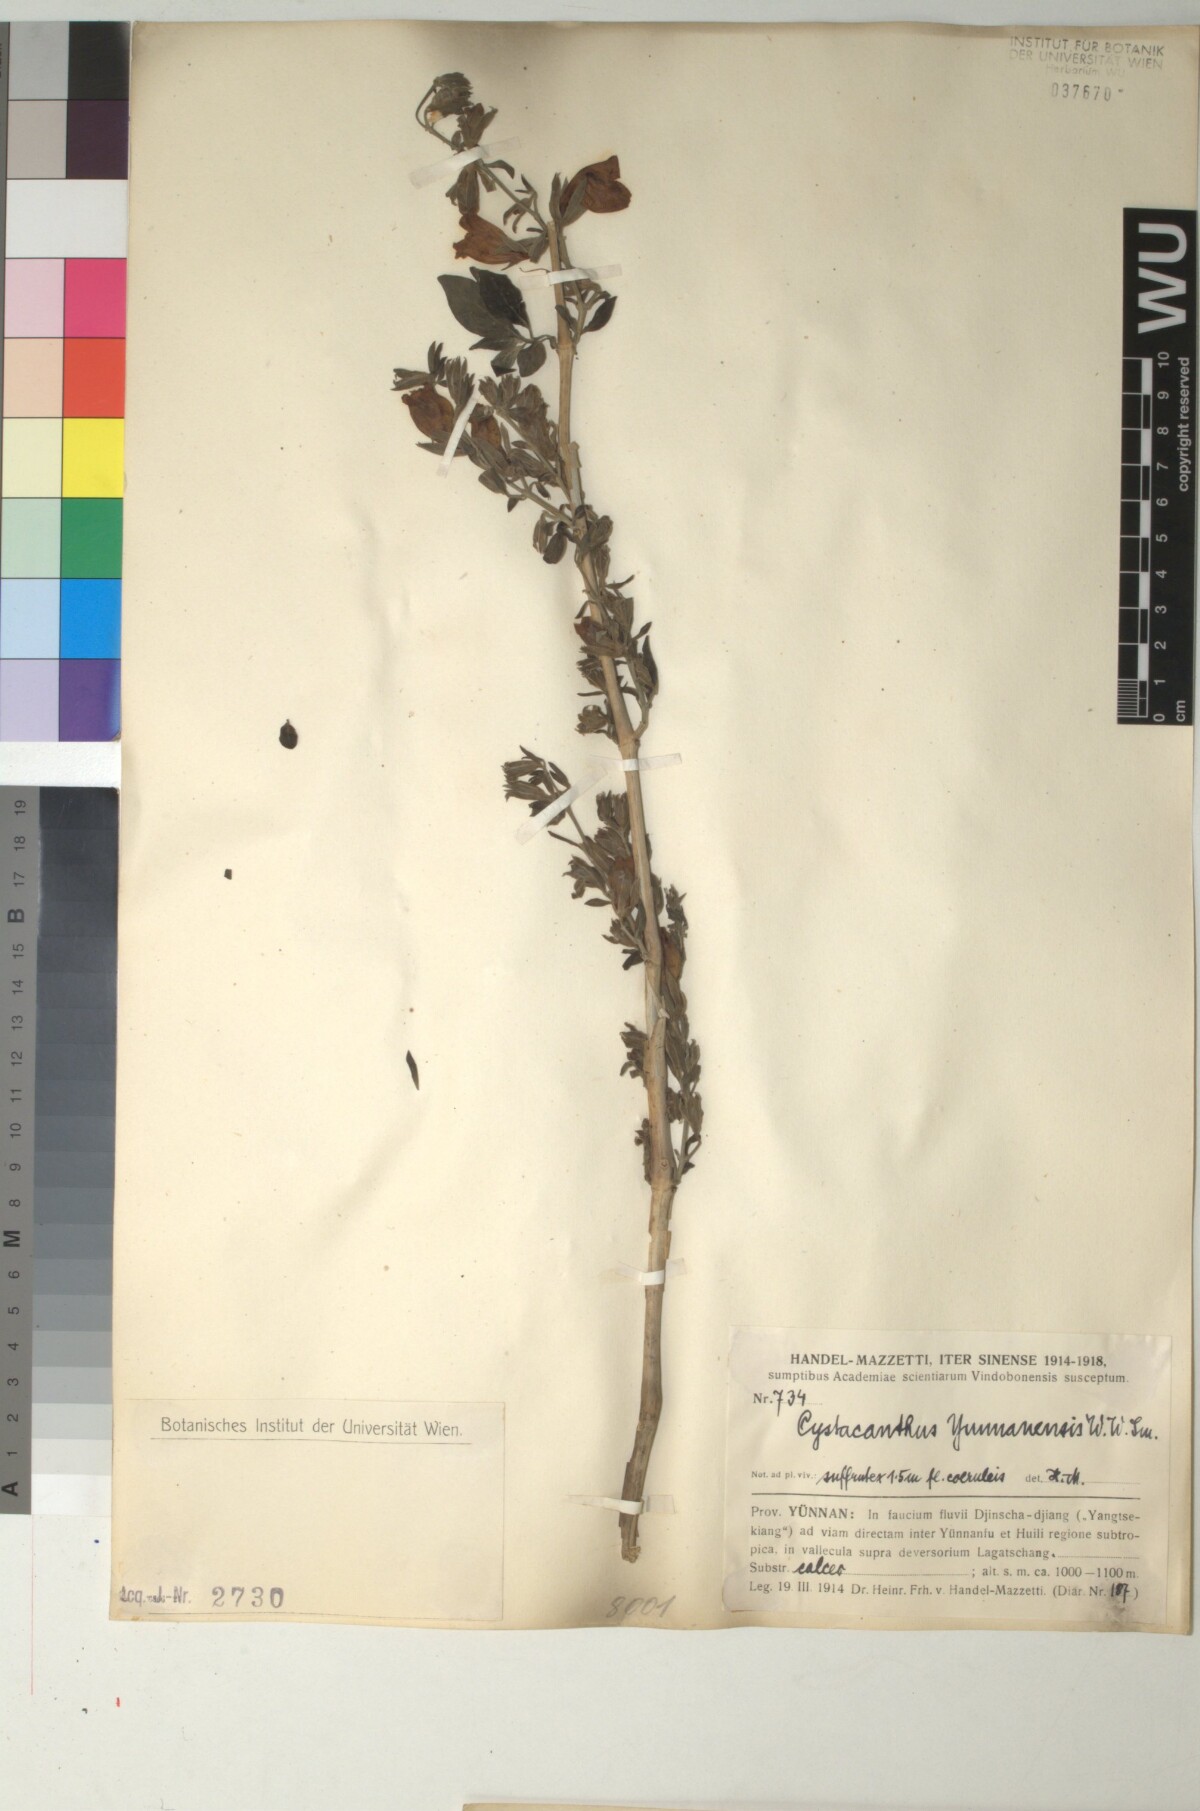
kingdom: Plantae
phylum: Tracheophyta
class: Magnoliopsida
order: Lamiales
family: Acanthaceae
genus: Phlogacanthus
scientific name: Phlogacanthus yangtsekiangensis
